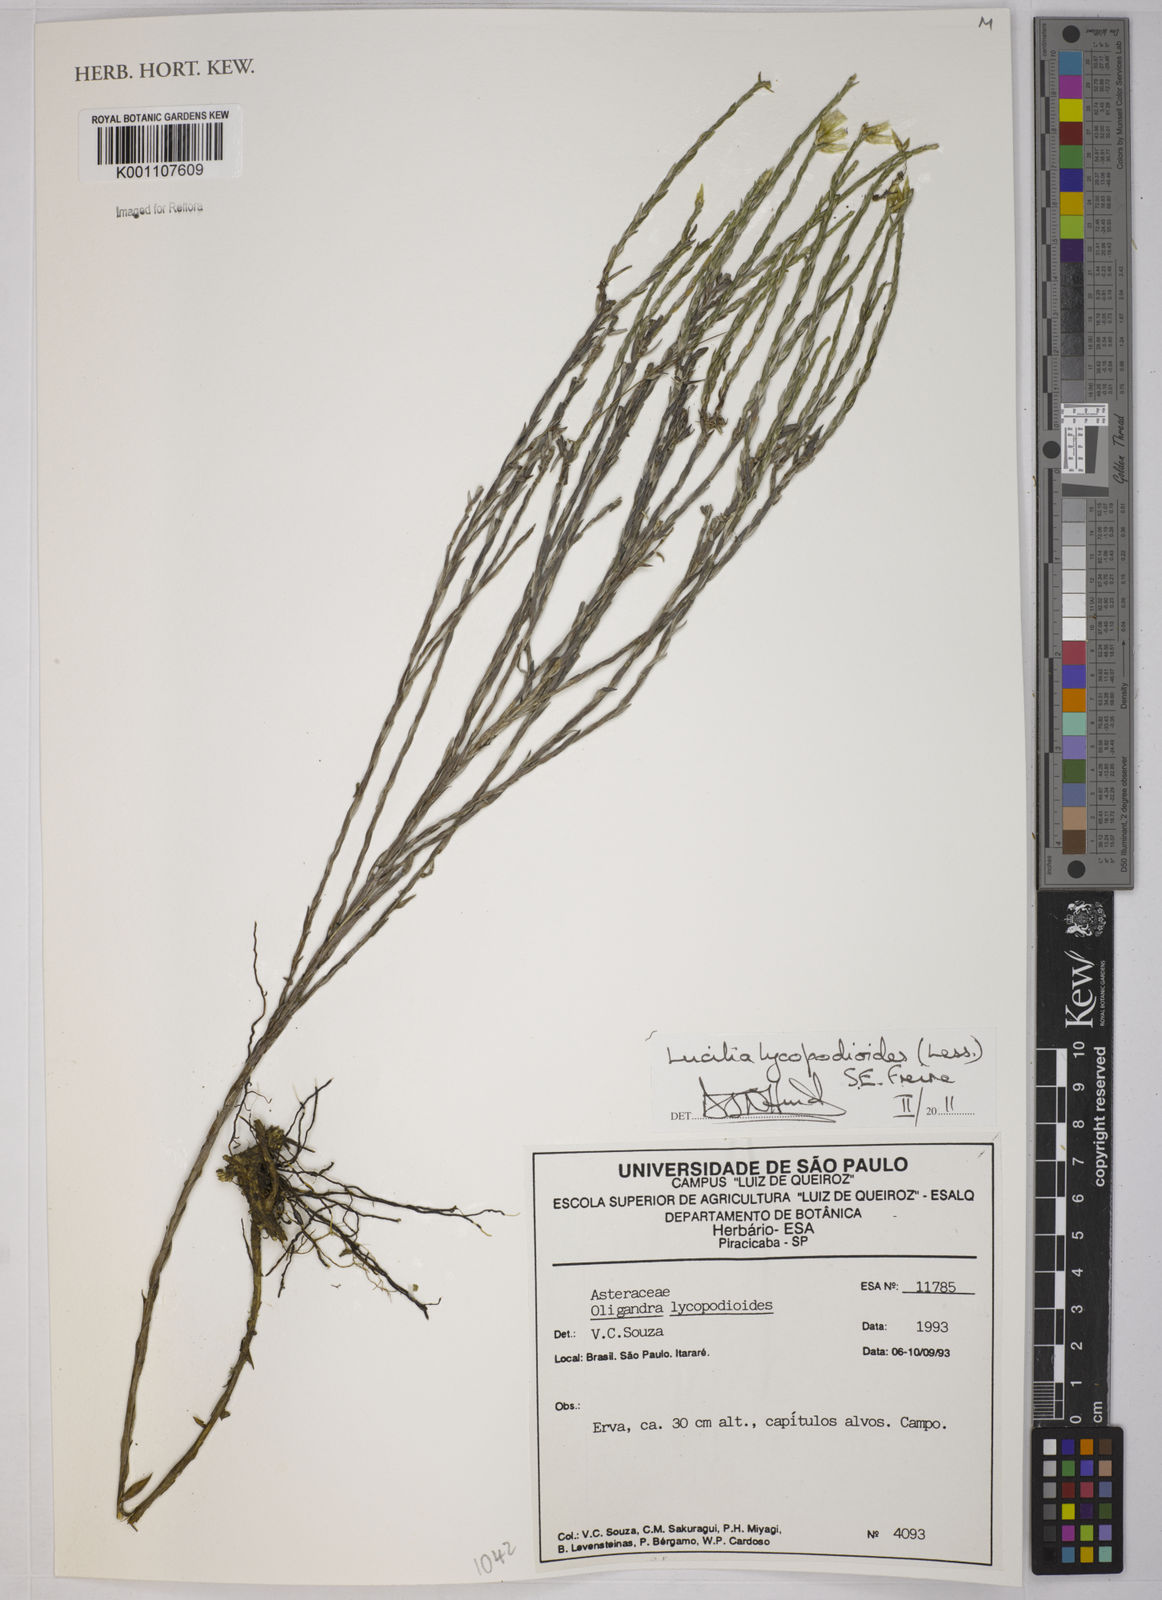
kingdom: Plantae
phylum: Tracheophyta
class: Magnoliopsida
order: Asterales
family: Asteraceae
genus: Lucilia
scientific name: Lucilia lycopodioides
